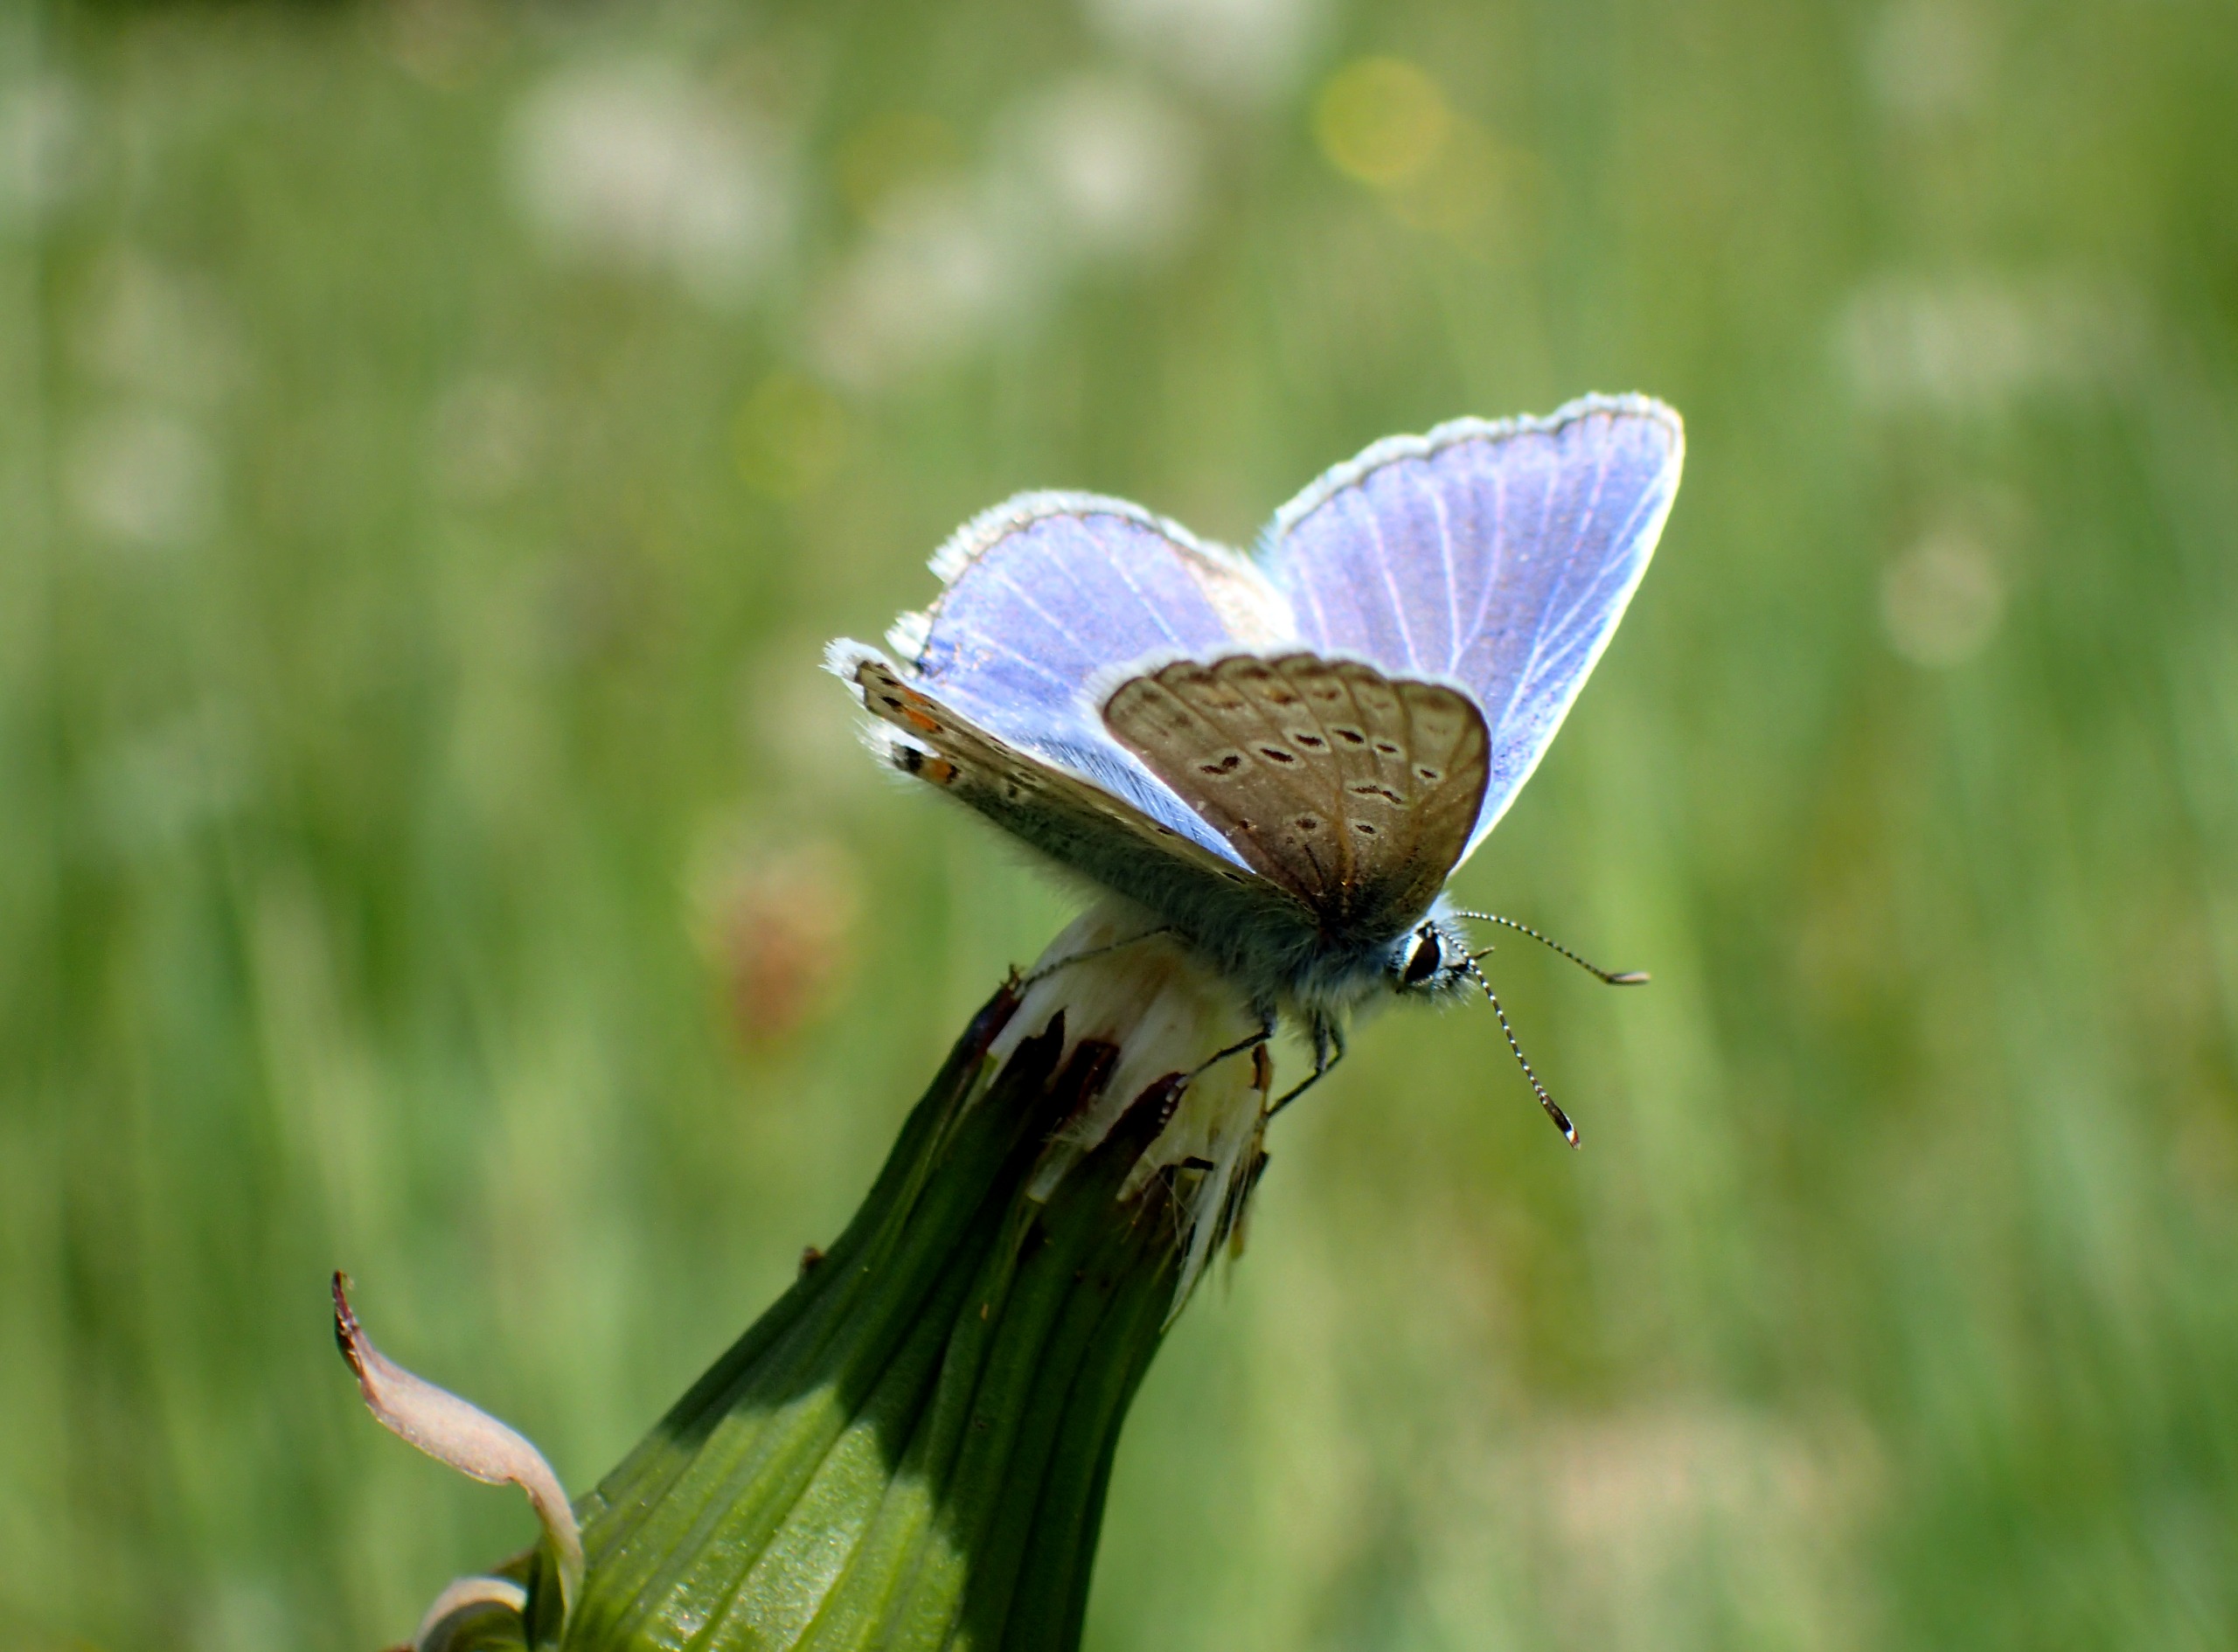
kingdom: Animalia
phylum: Arthropoda
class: Insecta
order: Lepidoptera
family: Lycaenidae
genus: Polyommatus
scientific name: Polyommatus icarus
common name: Almindelig blåfugl
